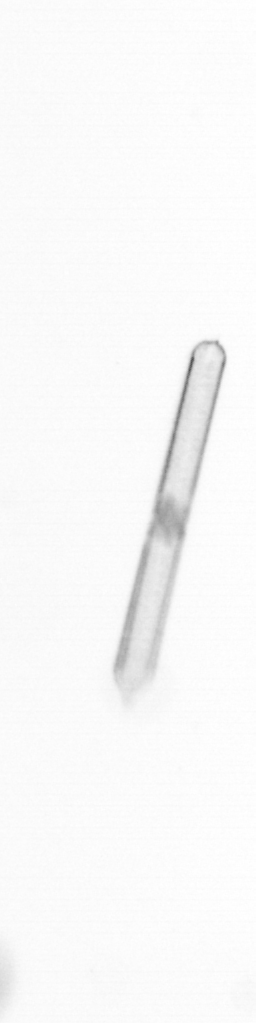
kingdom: Chromista
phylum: Ochrophyta
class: Bacillariophyceae
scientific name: Bacillariophyceae
